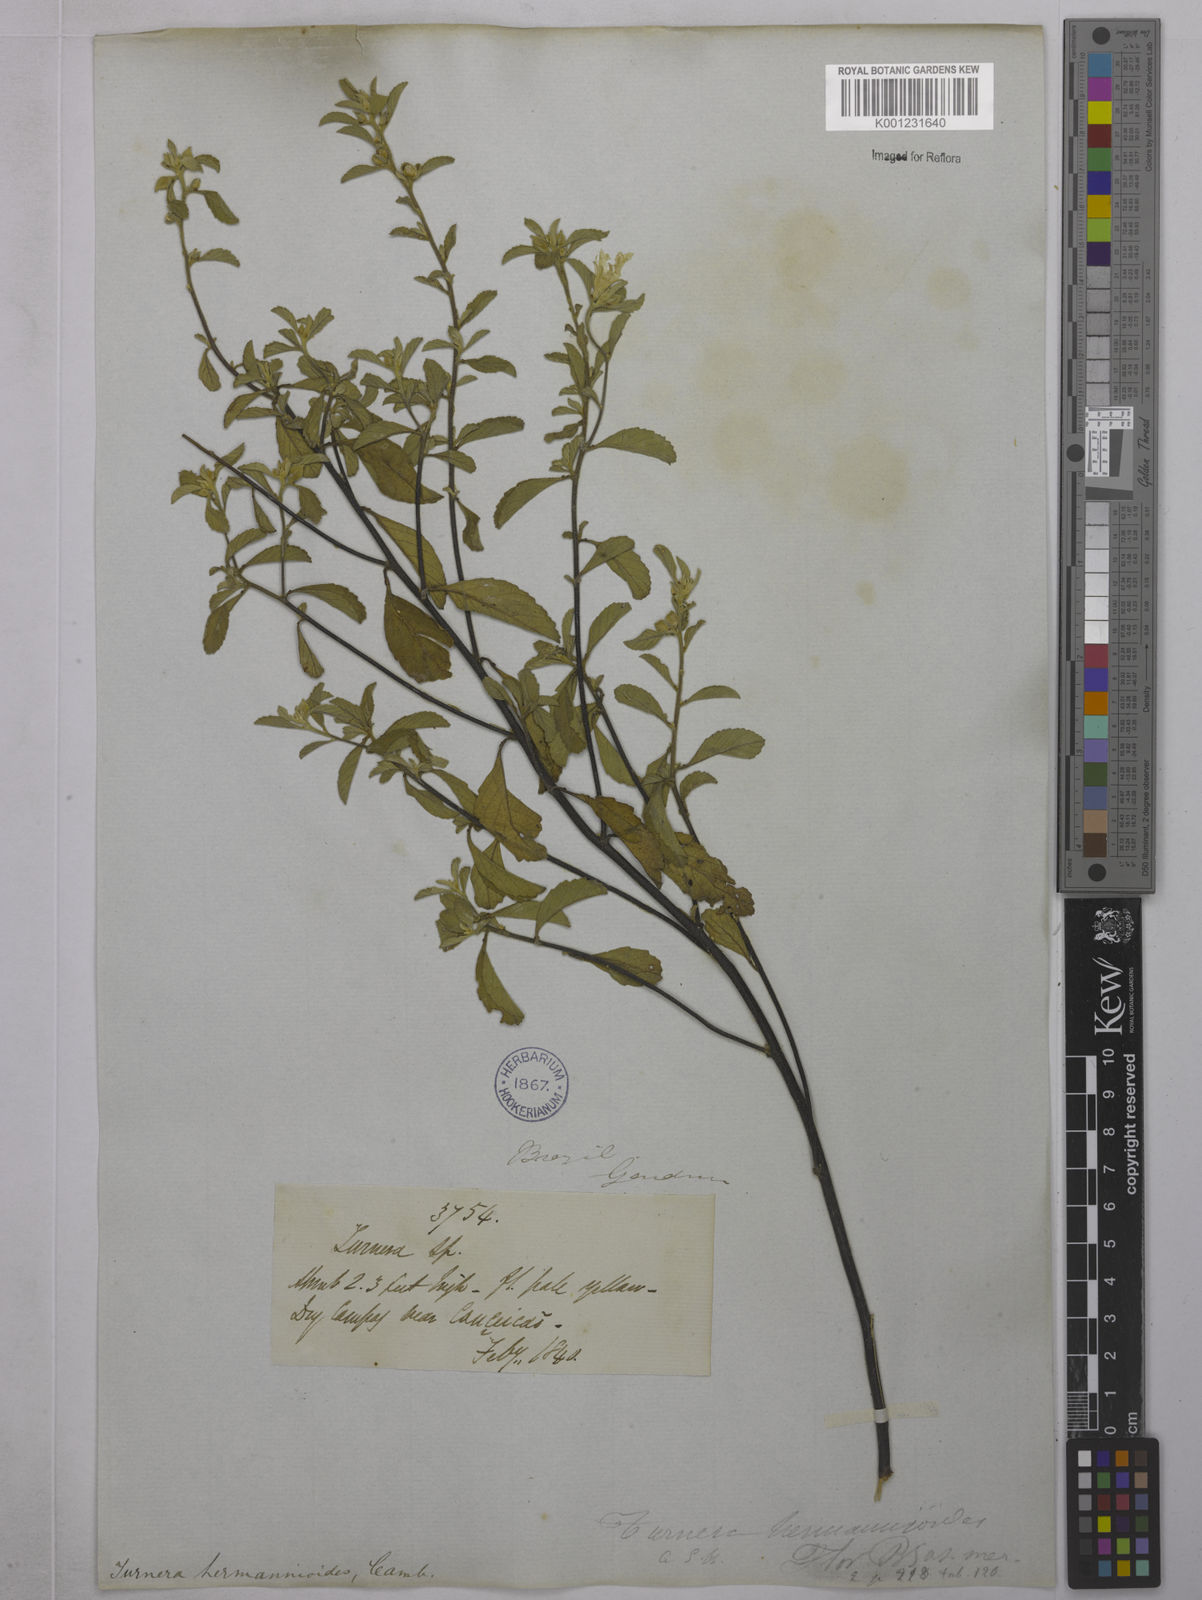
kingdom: Plantae
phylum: Tracheophyta
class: Magnoliopsida
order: Malpighiales
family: Turneraceae
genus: Turnera
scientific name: Turnera hermannioides
